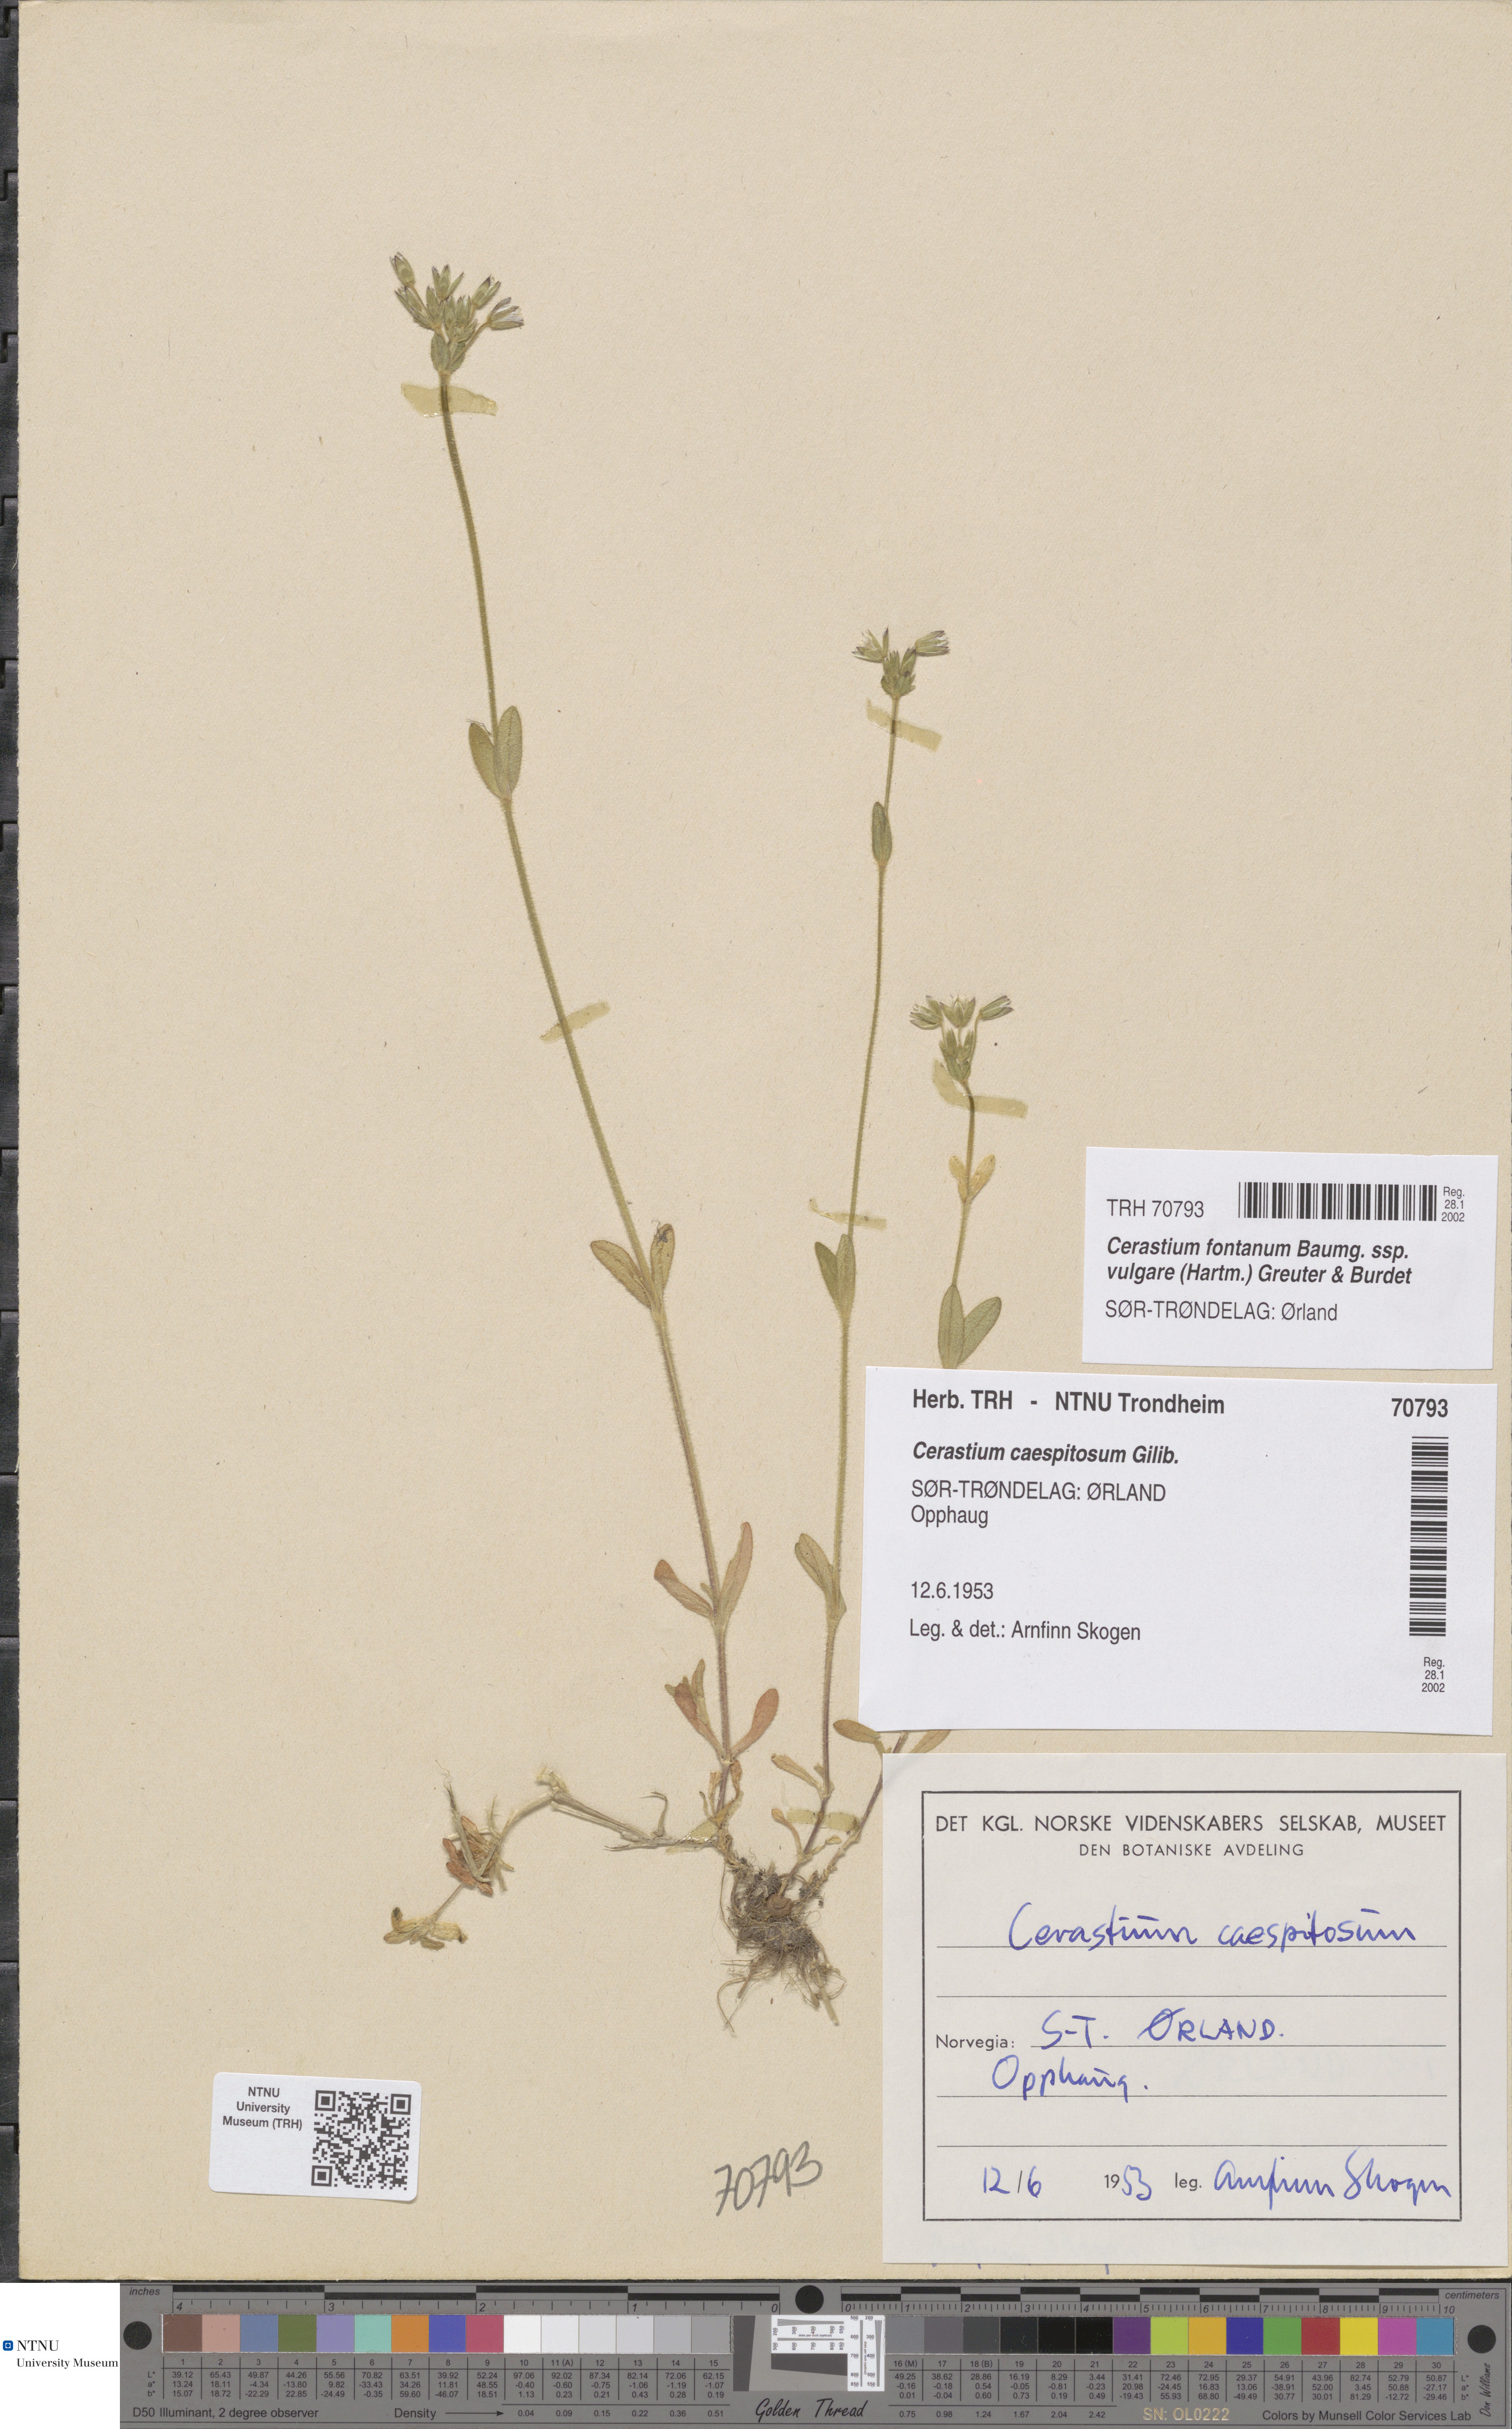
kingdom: Plantae
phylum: Tracheophyta
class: Magnoliopsida
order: Caryophyllales
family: Caryophyllaceae
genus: Cerastium
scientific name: Cerastium holosteoides
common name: Big chickweed
